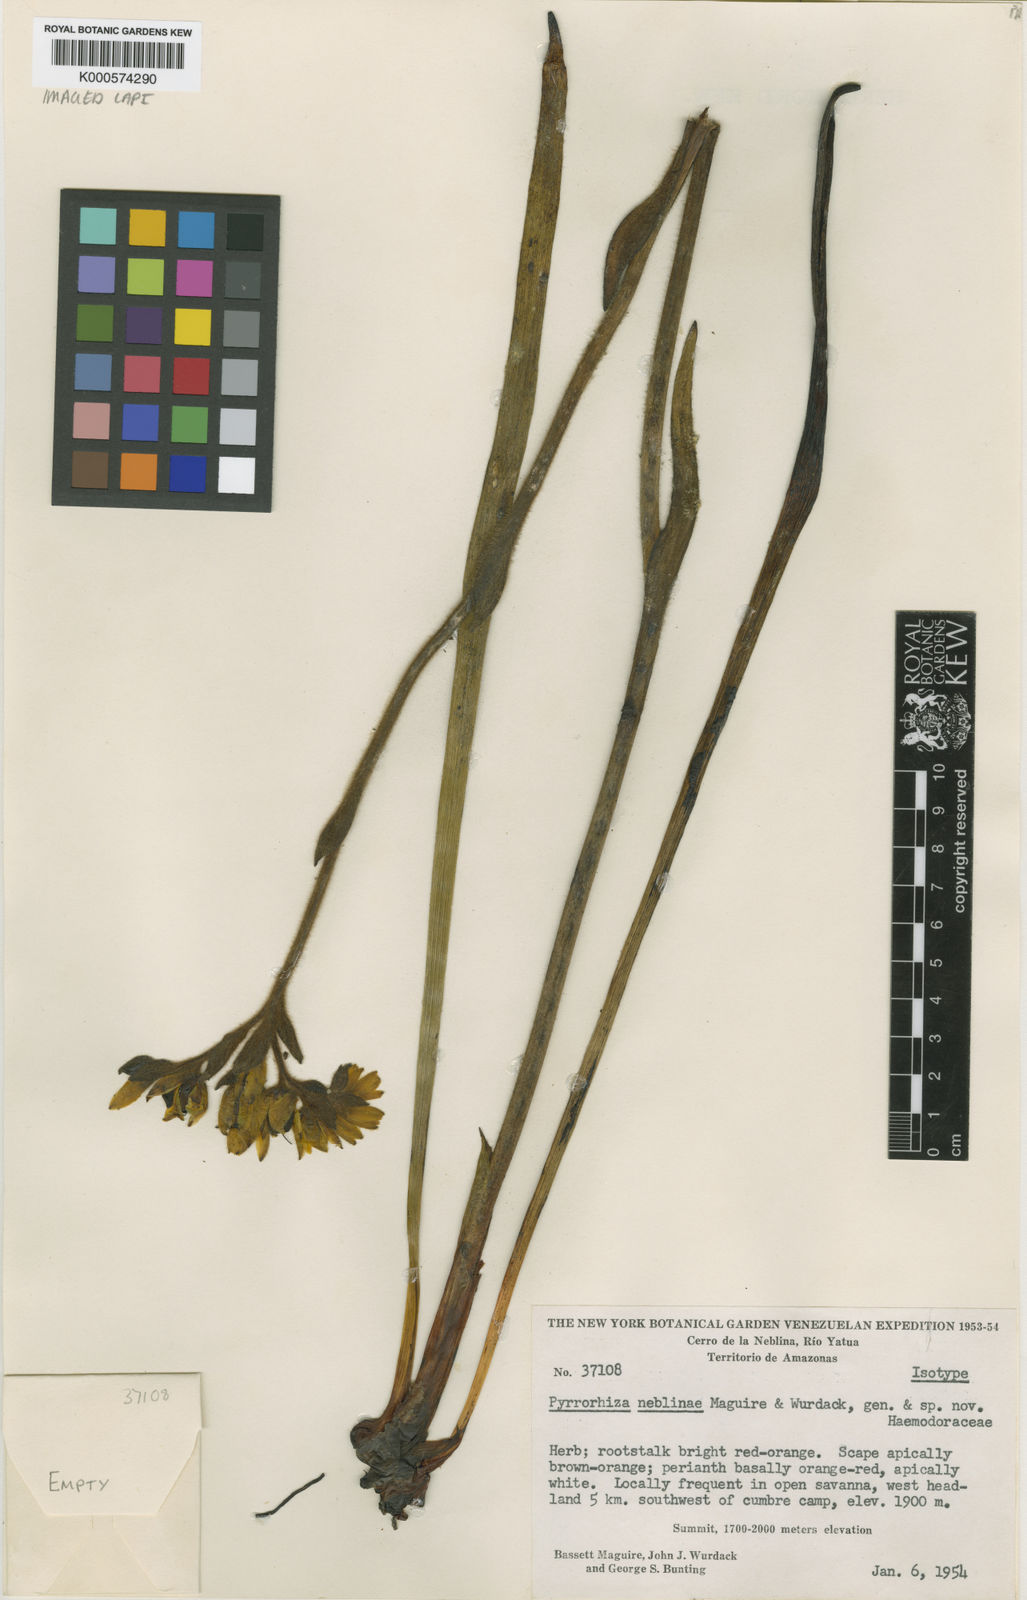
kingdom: Plantae
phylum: Tracheophyta
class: Liliopsida
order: Commelinales
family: Haemodoraceae
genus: Pyrrorhiza
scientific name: Pyrrorhiza neblinae
